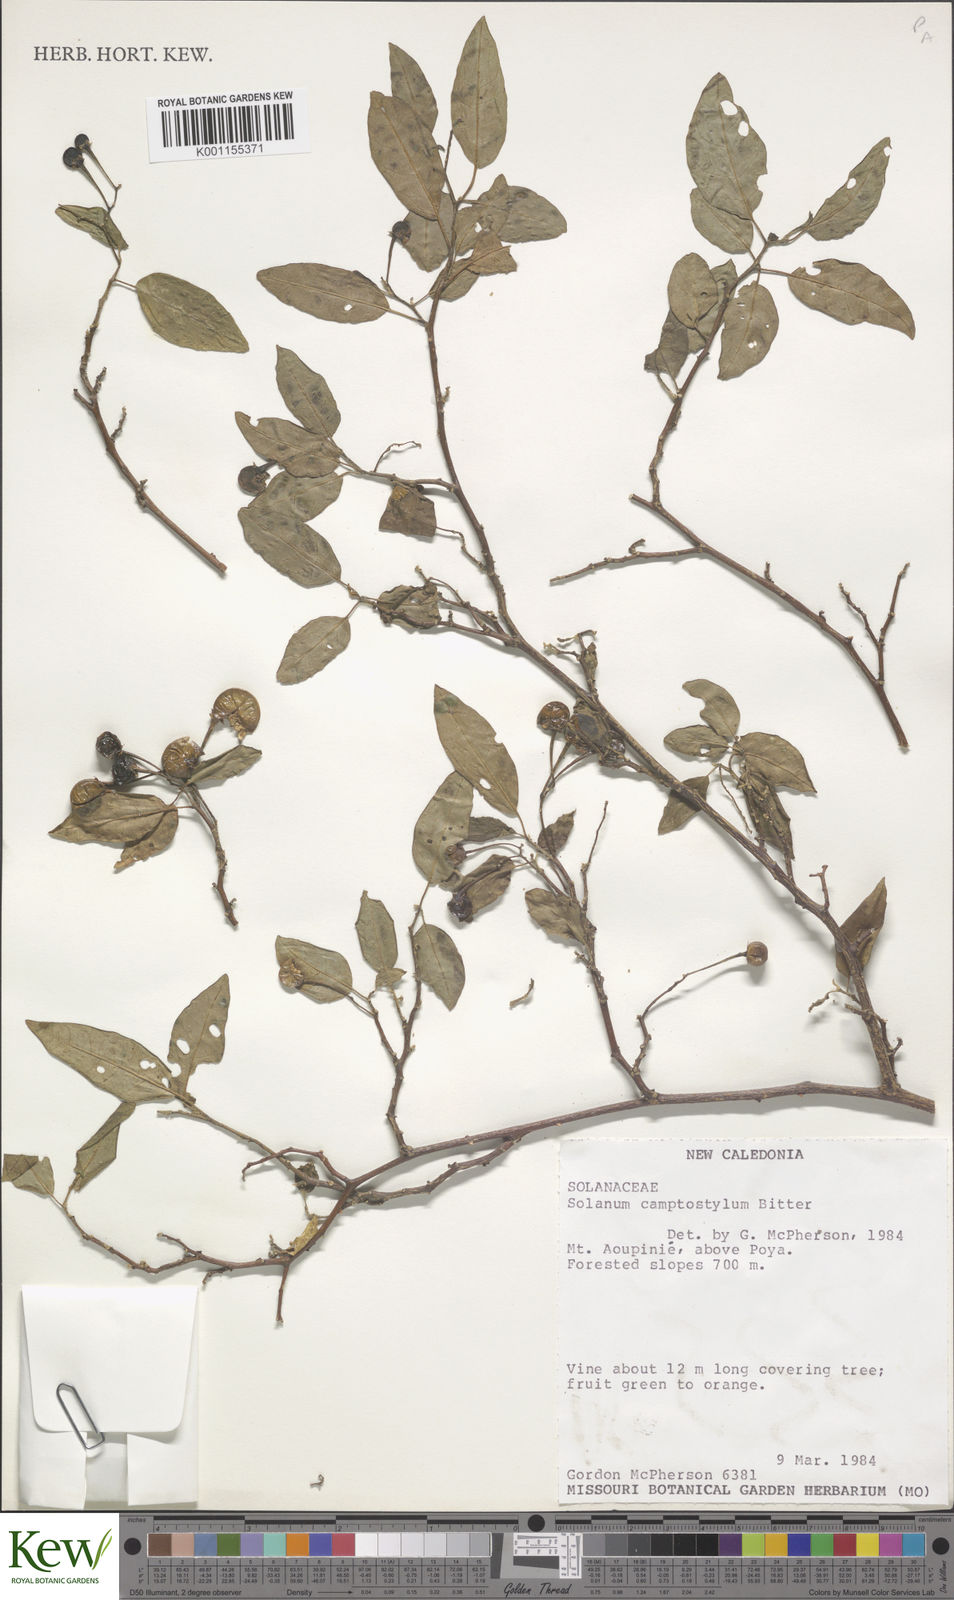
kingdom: Plantae
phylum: Tracheophyta
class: Magnoliopsida
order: Solanales
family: Solanaceae
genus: Solanum
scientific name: Solanum camptostylum
